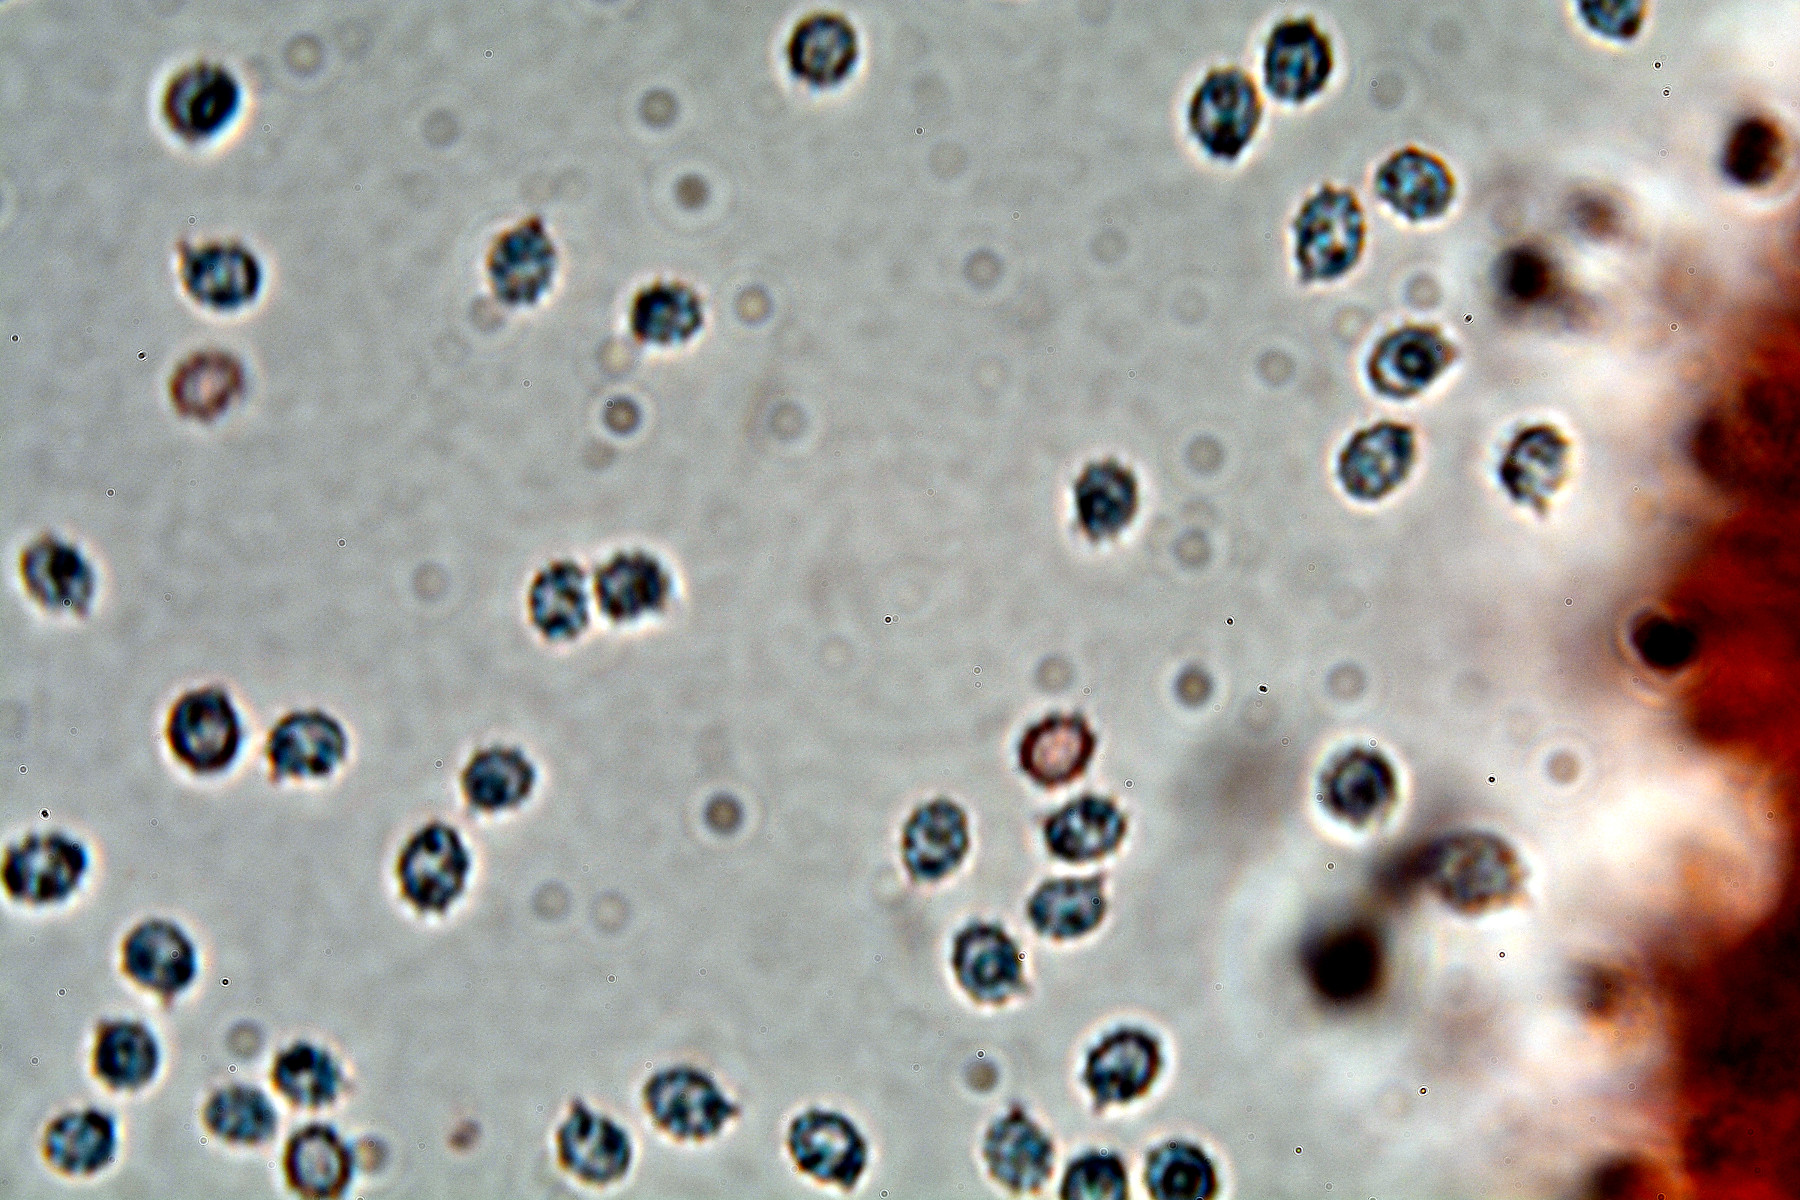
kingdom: Fungi
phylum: Basidiomycota
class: Agaricomycetes
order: Trechisporales
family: Sistotremataceae
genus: Trechispora
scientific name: Trechispora stevensonii
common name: støvende vathinde
